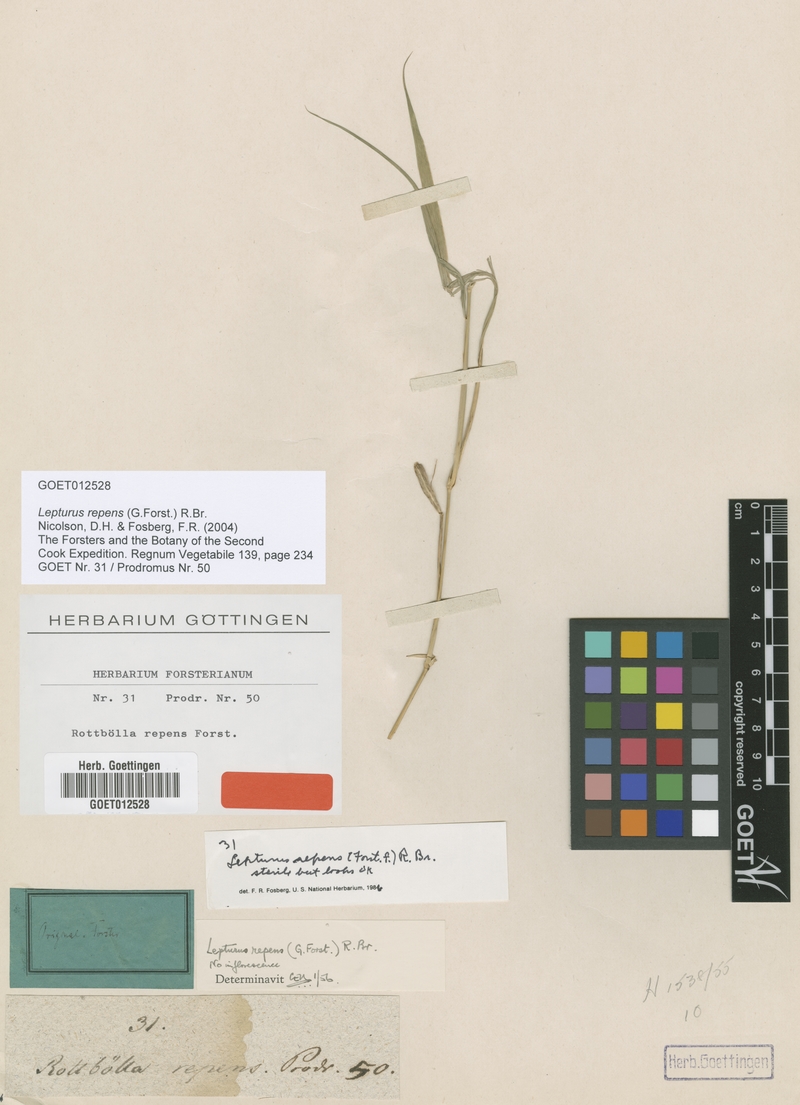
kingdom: Plantae
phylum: Tracheophyta
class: Liliopsida
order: Poales
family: Poaceae
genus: Lepturus
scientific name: Lepturus repens
